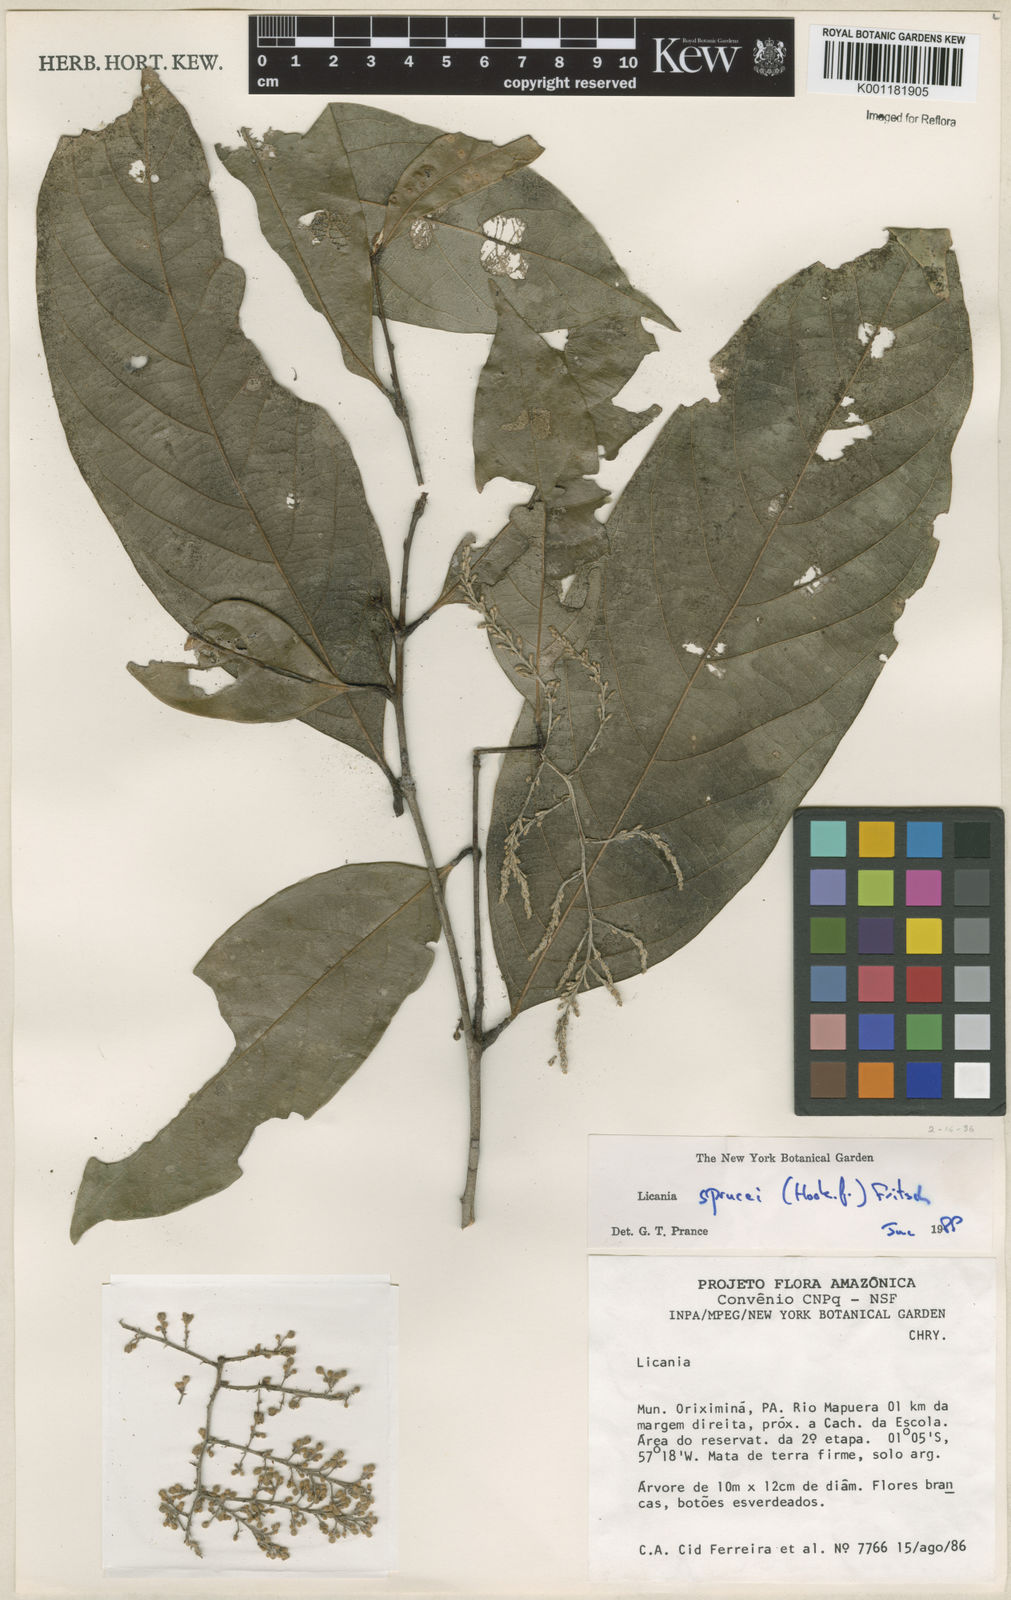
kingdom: Plantae
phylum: Tracheophyta
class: Magnoliopsida
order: Malpighiales
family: Chrysobalanaceae
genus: Leptobalanus
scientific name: Leptobalanus sprucei
